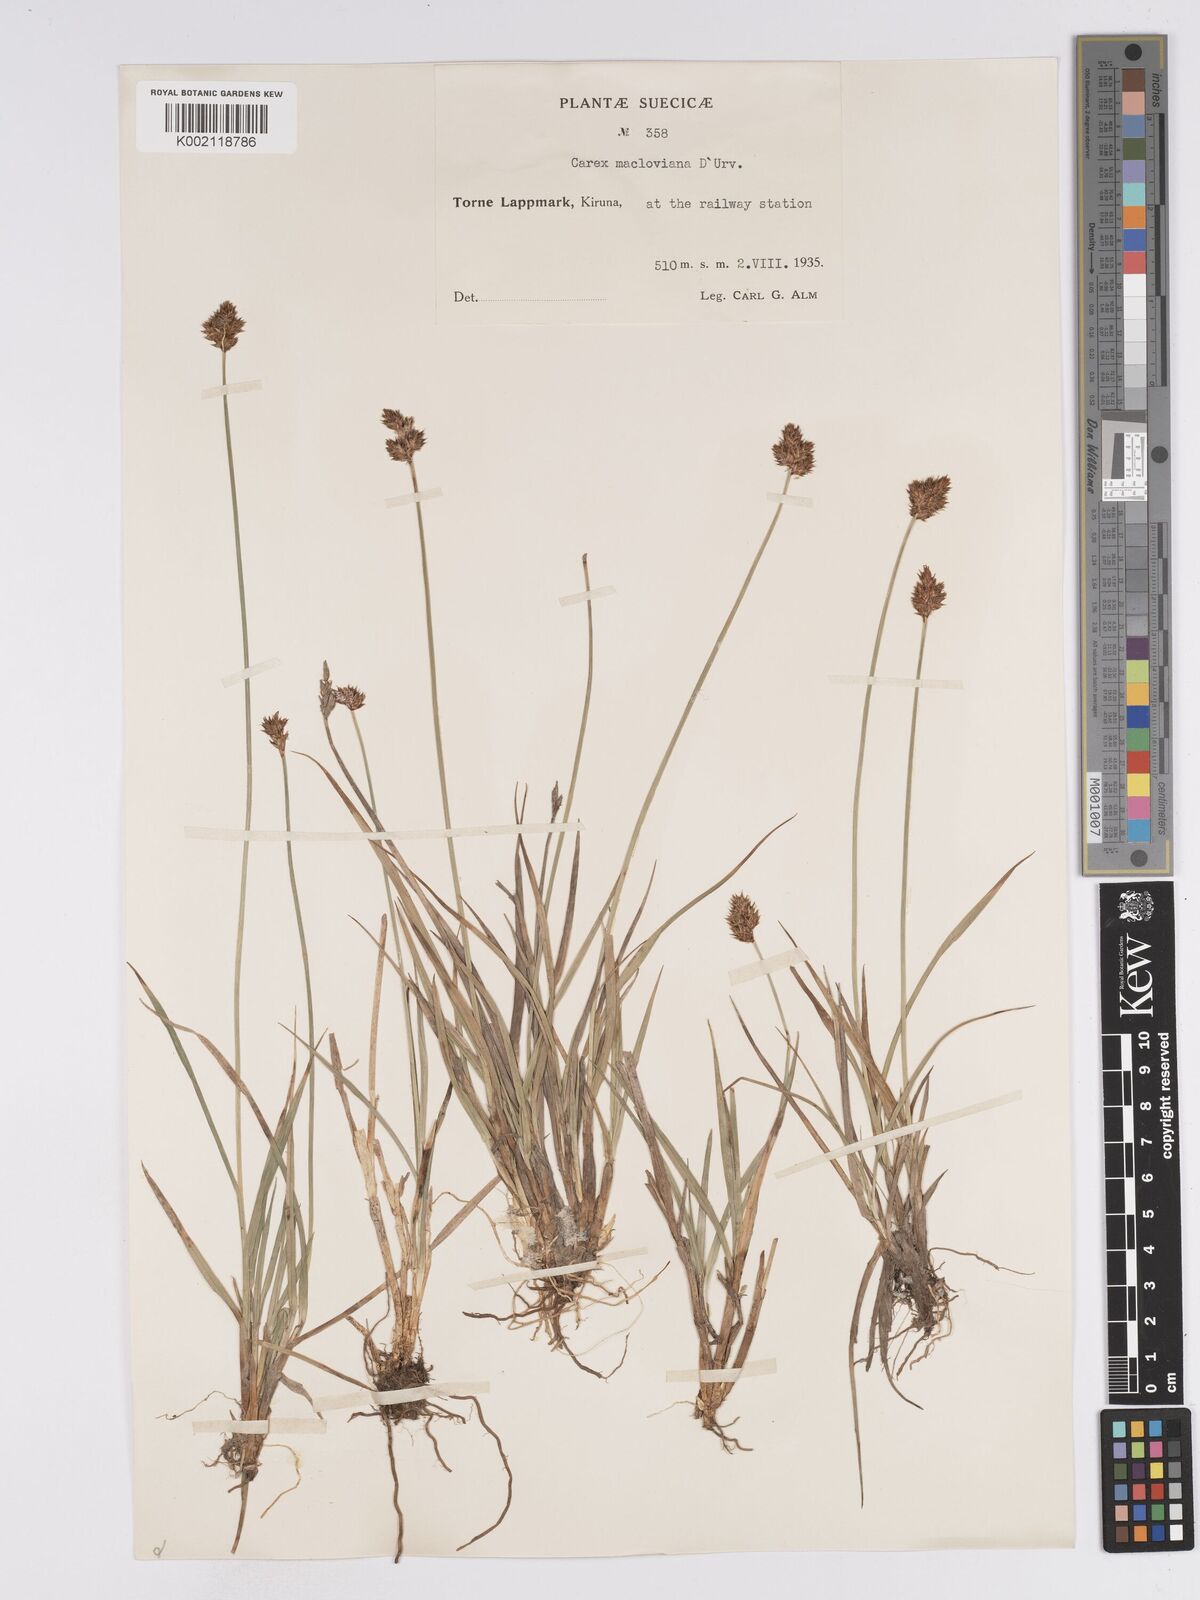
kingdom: Plantae
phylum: Tracheophyta
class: Liliopsida
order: Poales
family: Cyperaceae
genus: Carex
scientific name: Carex macloviana
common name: Falkland island sedge
